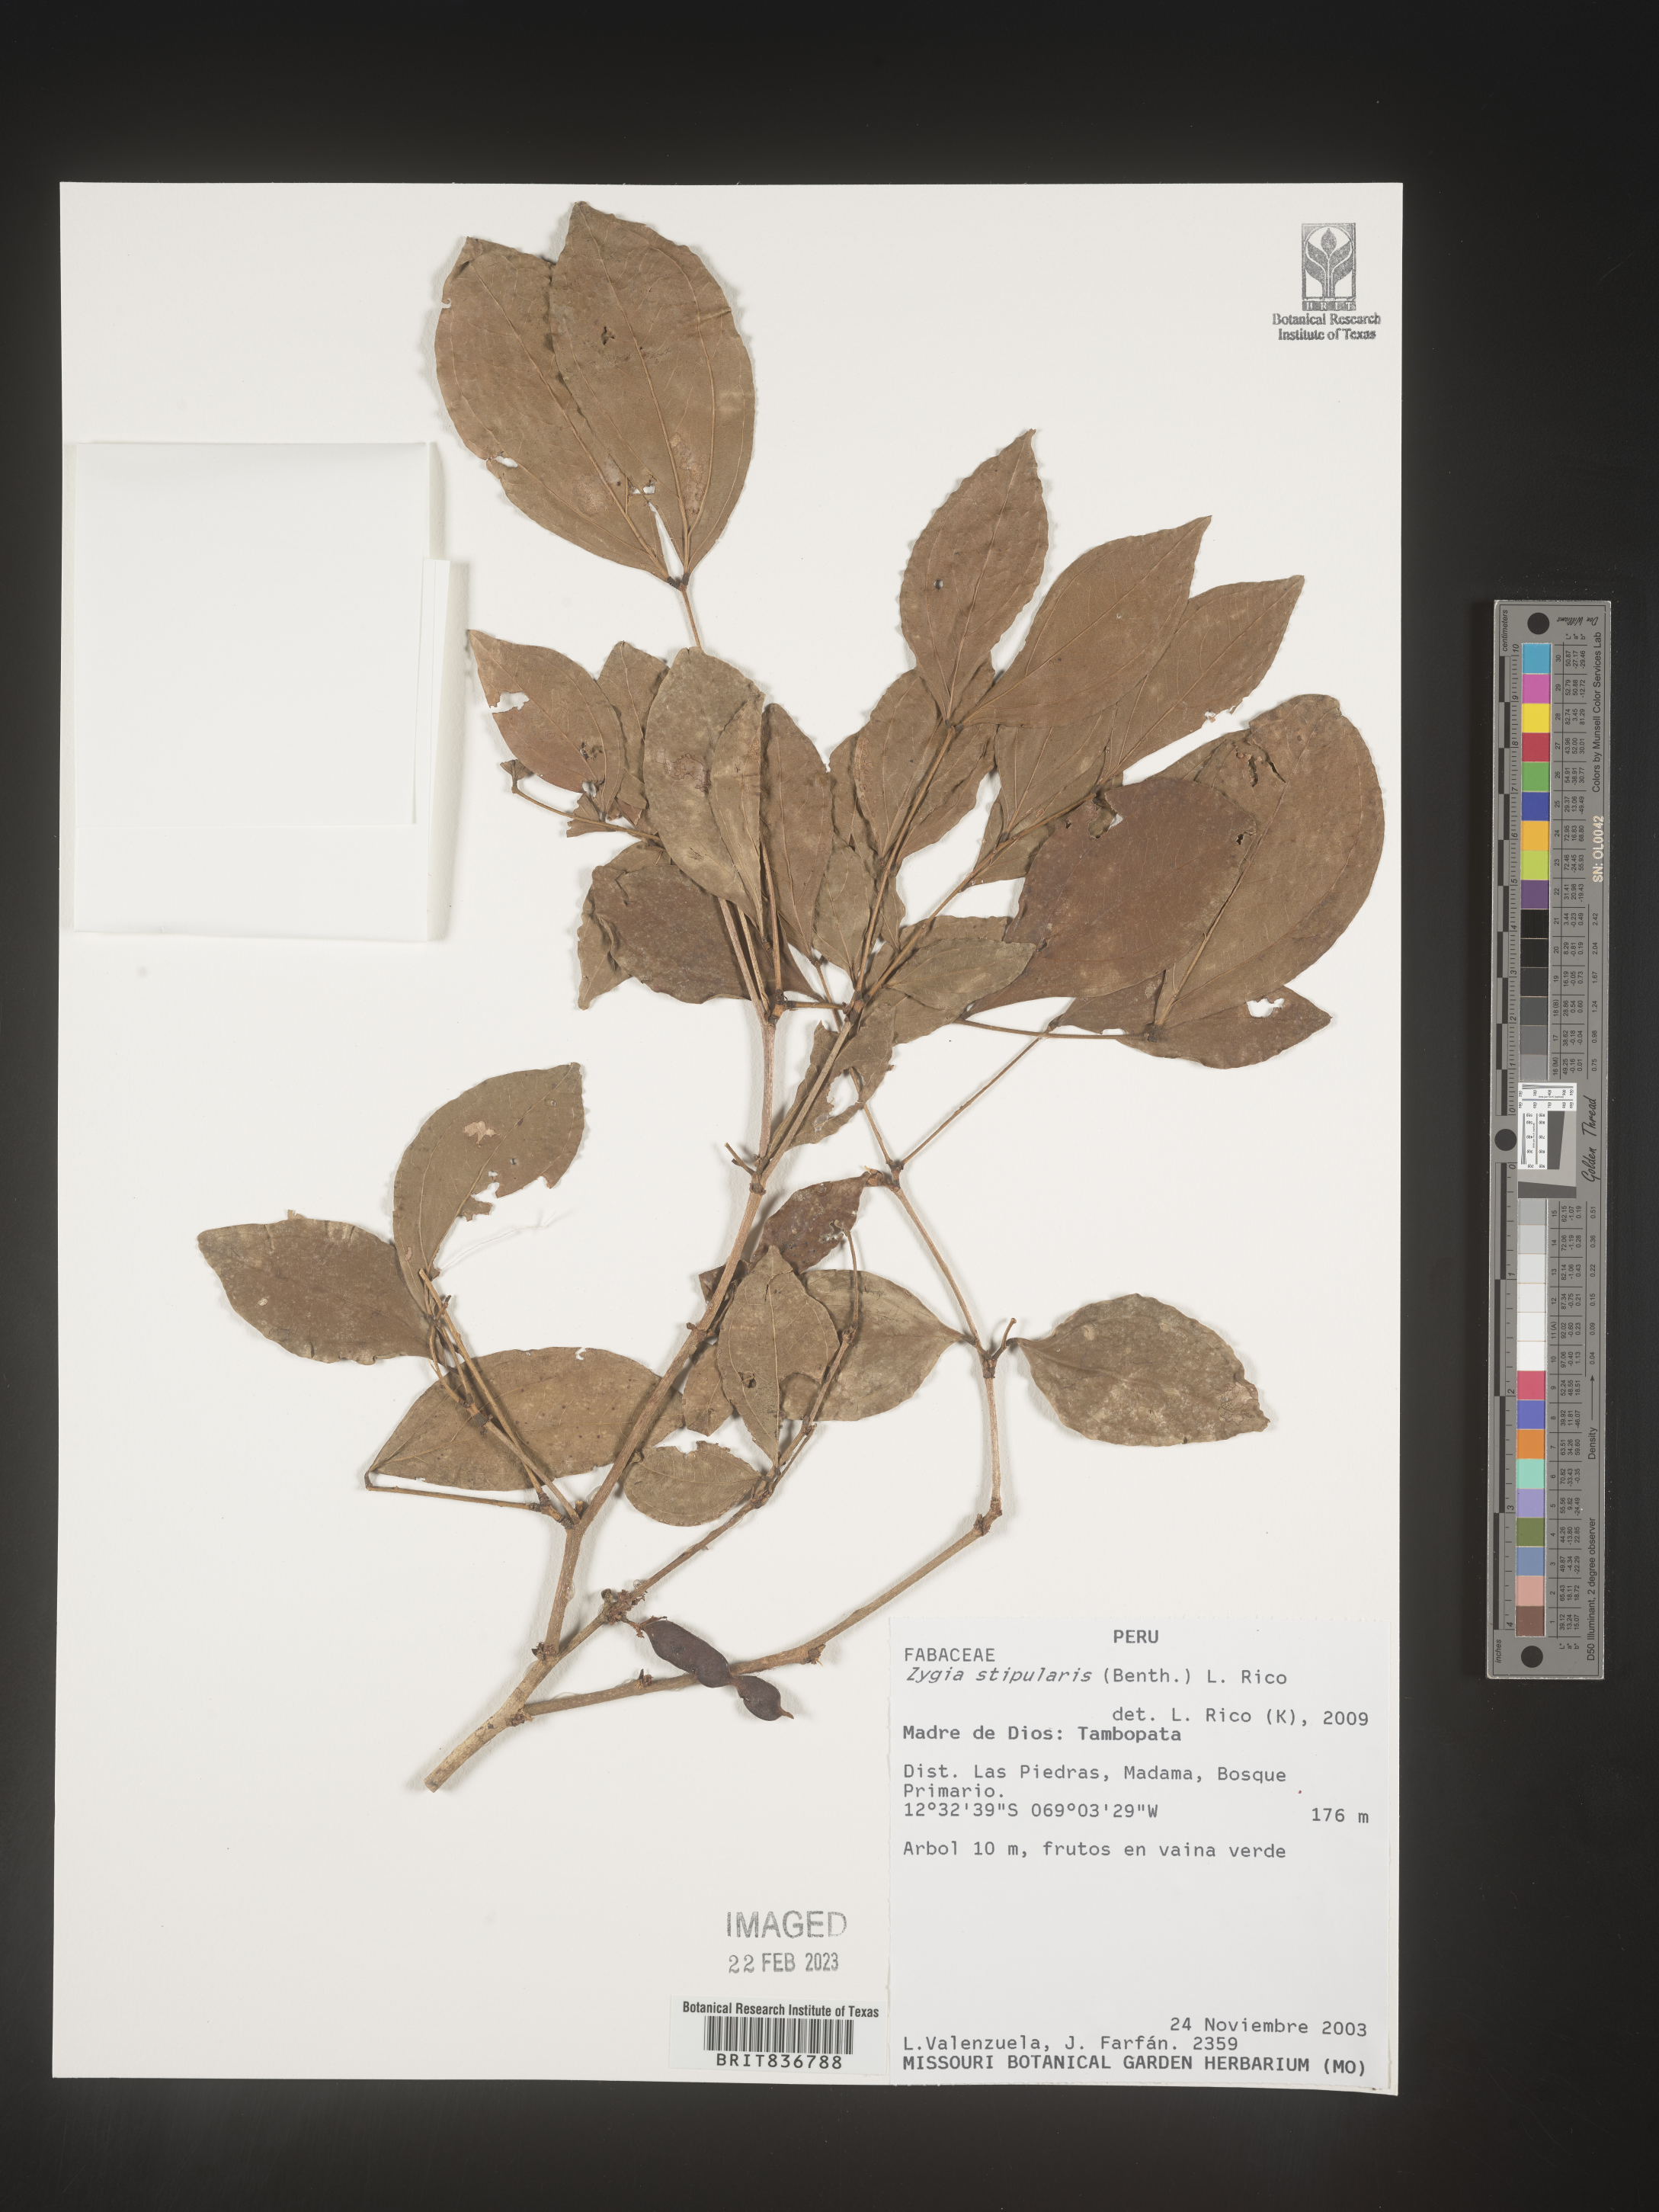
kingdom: Plantae
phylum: Tracheophyta
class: Magnoliopsida
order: Fabales
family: Fabaceae
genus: Zygia
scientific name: Zygia
